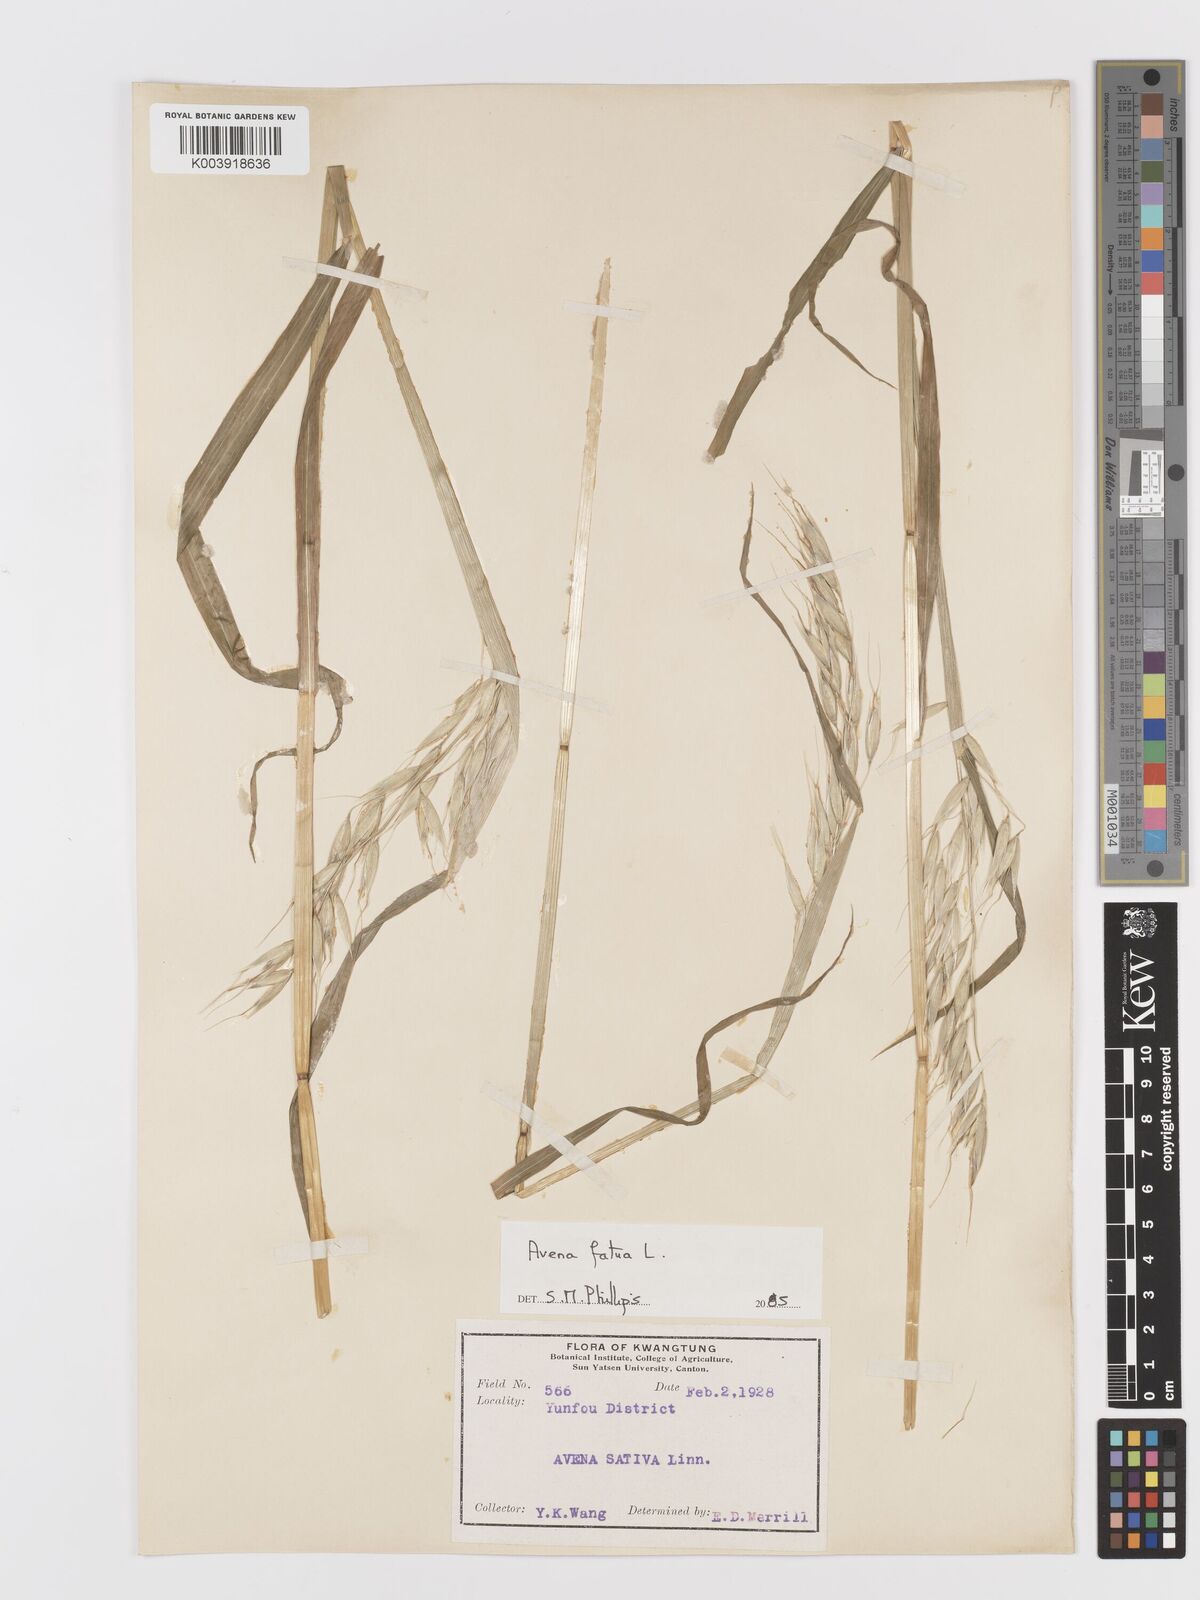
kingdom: Plantae
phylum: Tracheophyta
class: Liliopsida
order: Poales
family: Poaceae
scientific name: Poaceae
